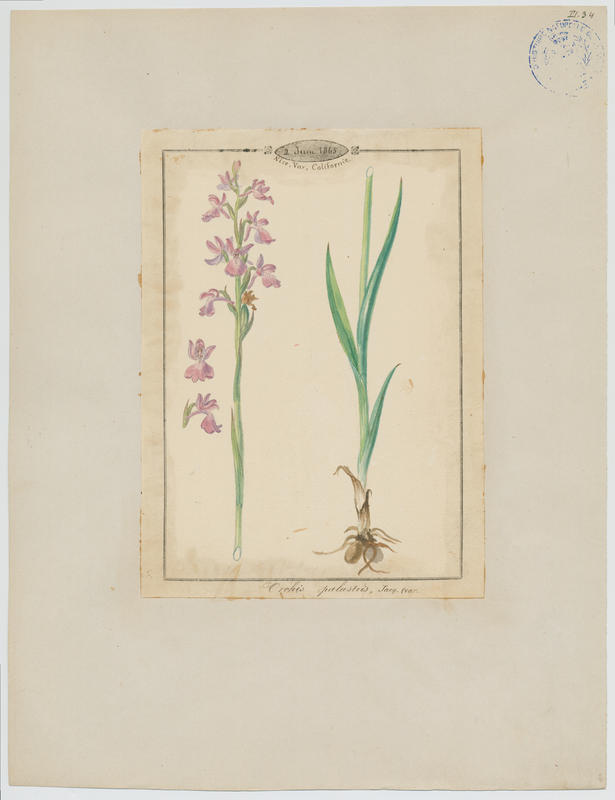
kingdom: Plantae
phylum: Tracheophyta
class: Liliopsida
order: Asparagales
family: Orchidaceae
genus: Anacamptis
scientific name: Anacamptis palustris
